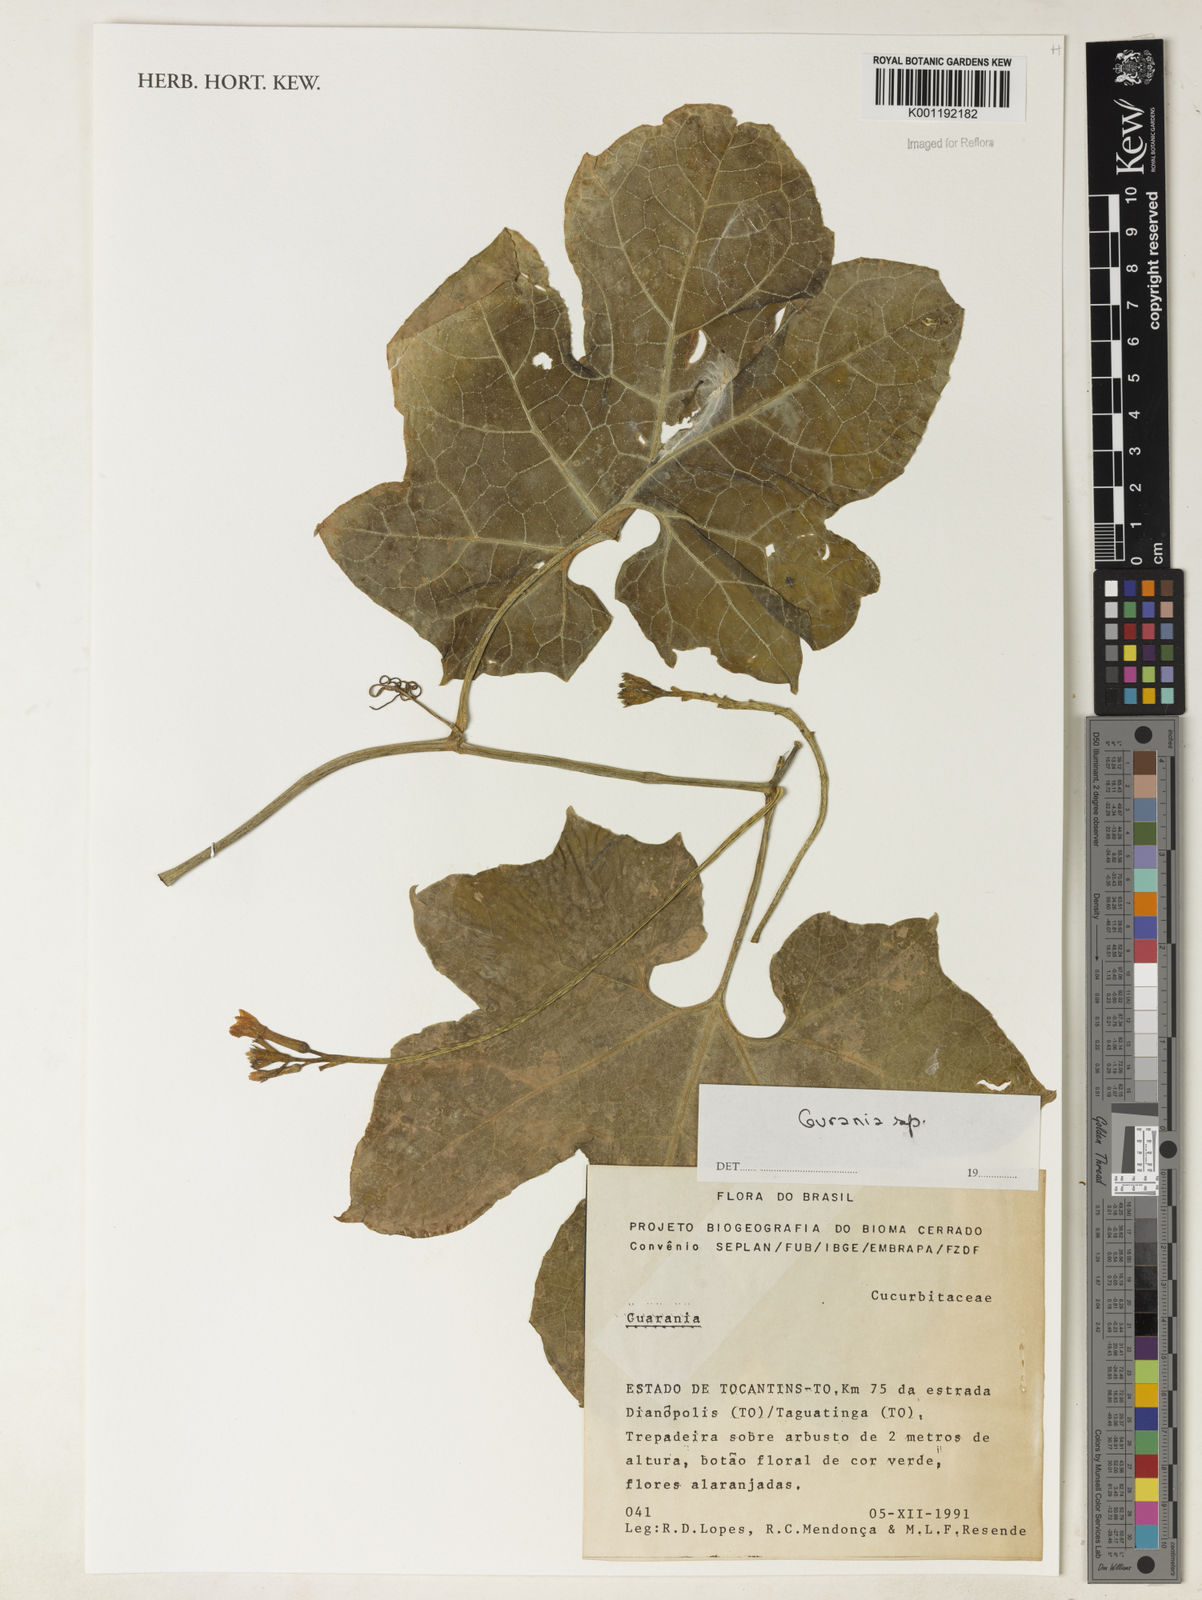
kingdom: Plantae
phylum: Tracheophyta
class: Magnoliopsida
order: Cucurbitales
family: Cucurbitaceae
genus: Gurania
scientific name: Gurania
